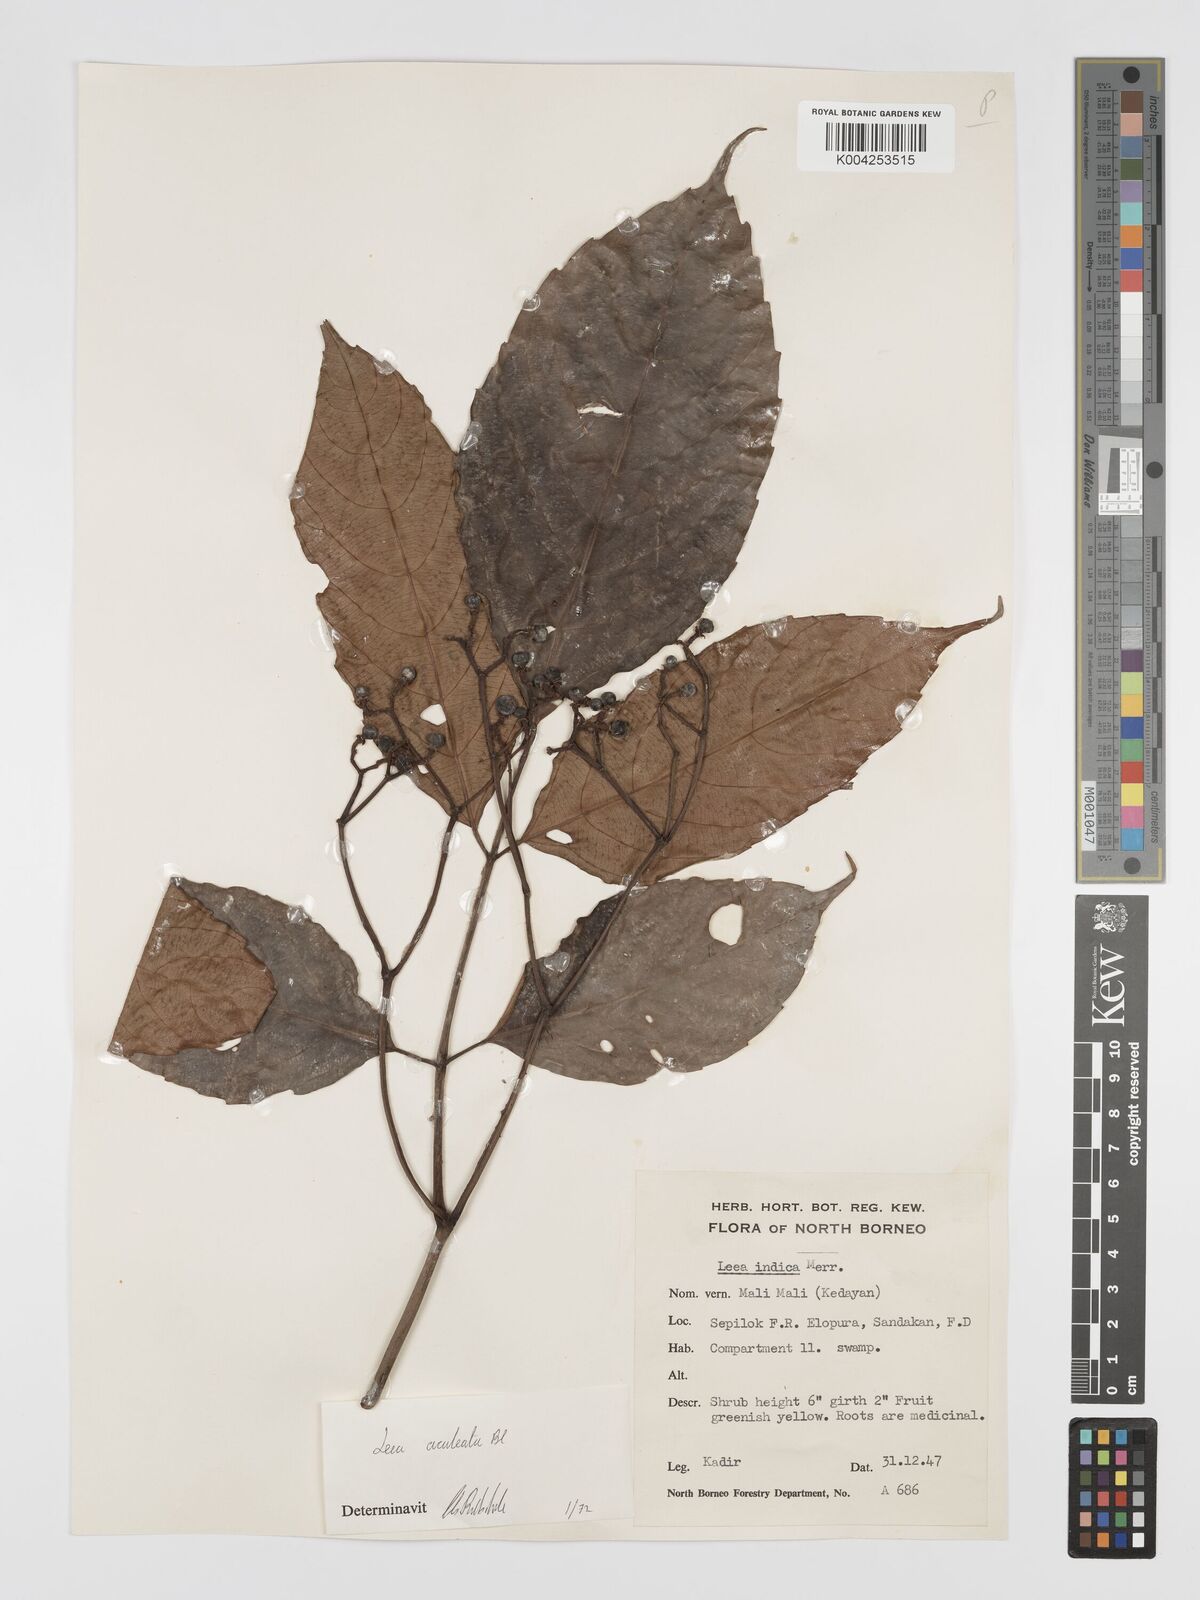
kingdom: Plantae
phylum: Tracheophyta
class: Magnoliopsida
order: Vitales
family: Vitaceae
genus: Leea
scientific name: Leea aculeata
